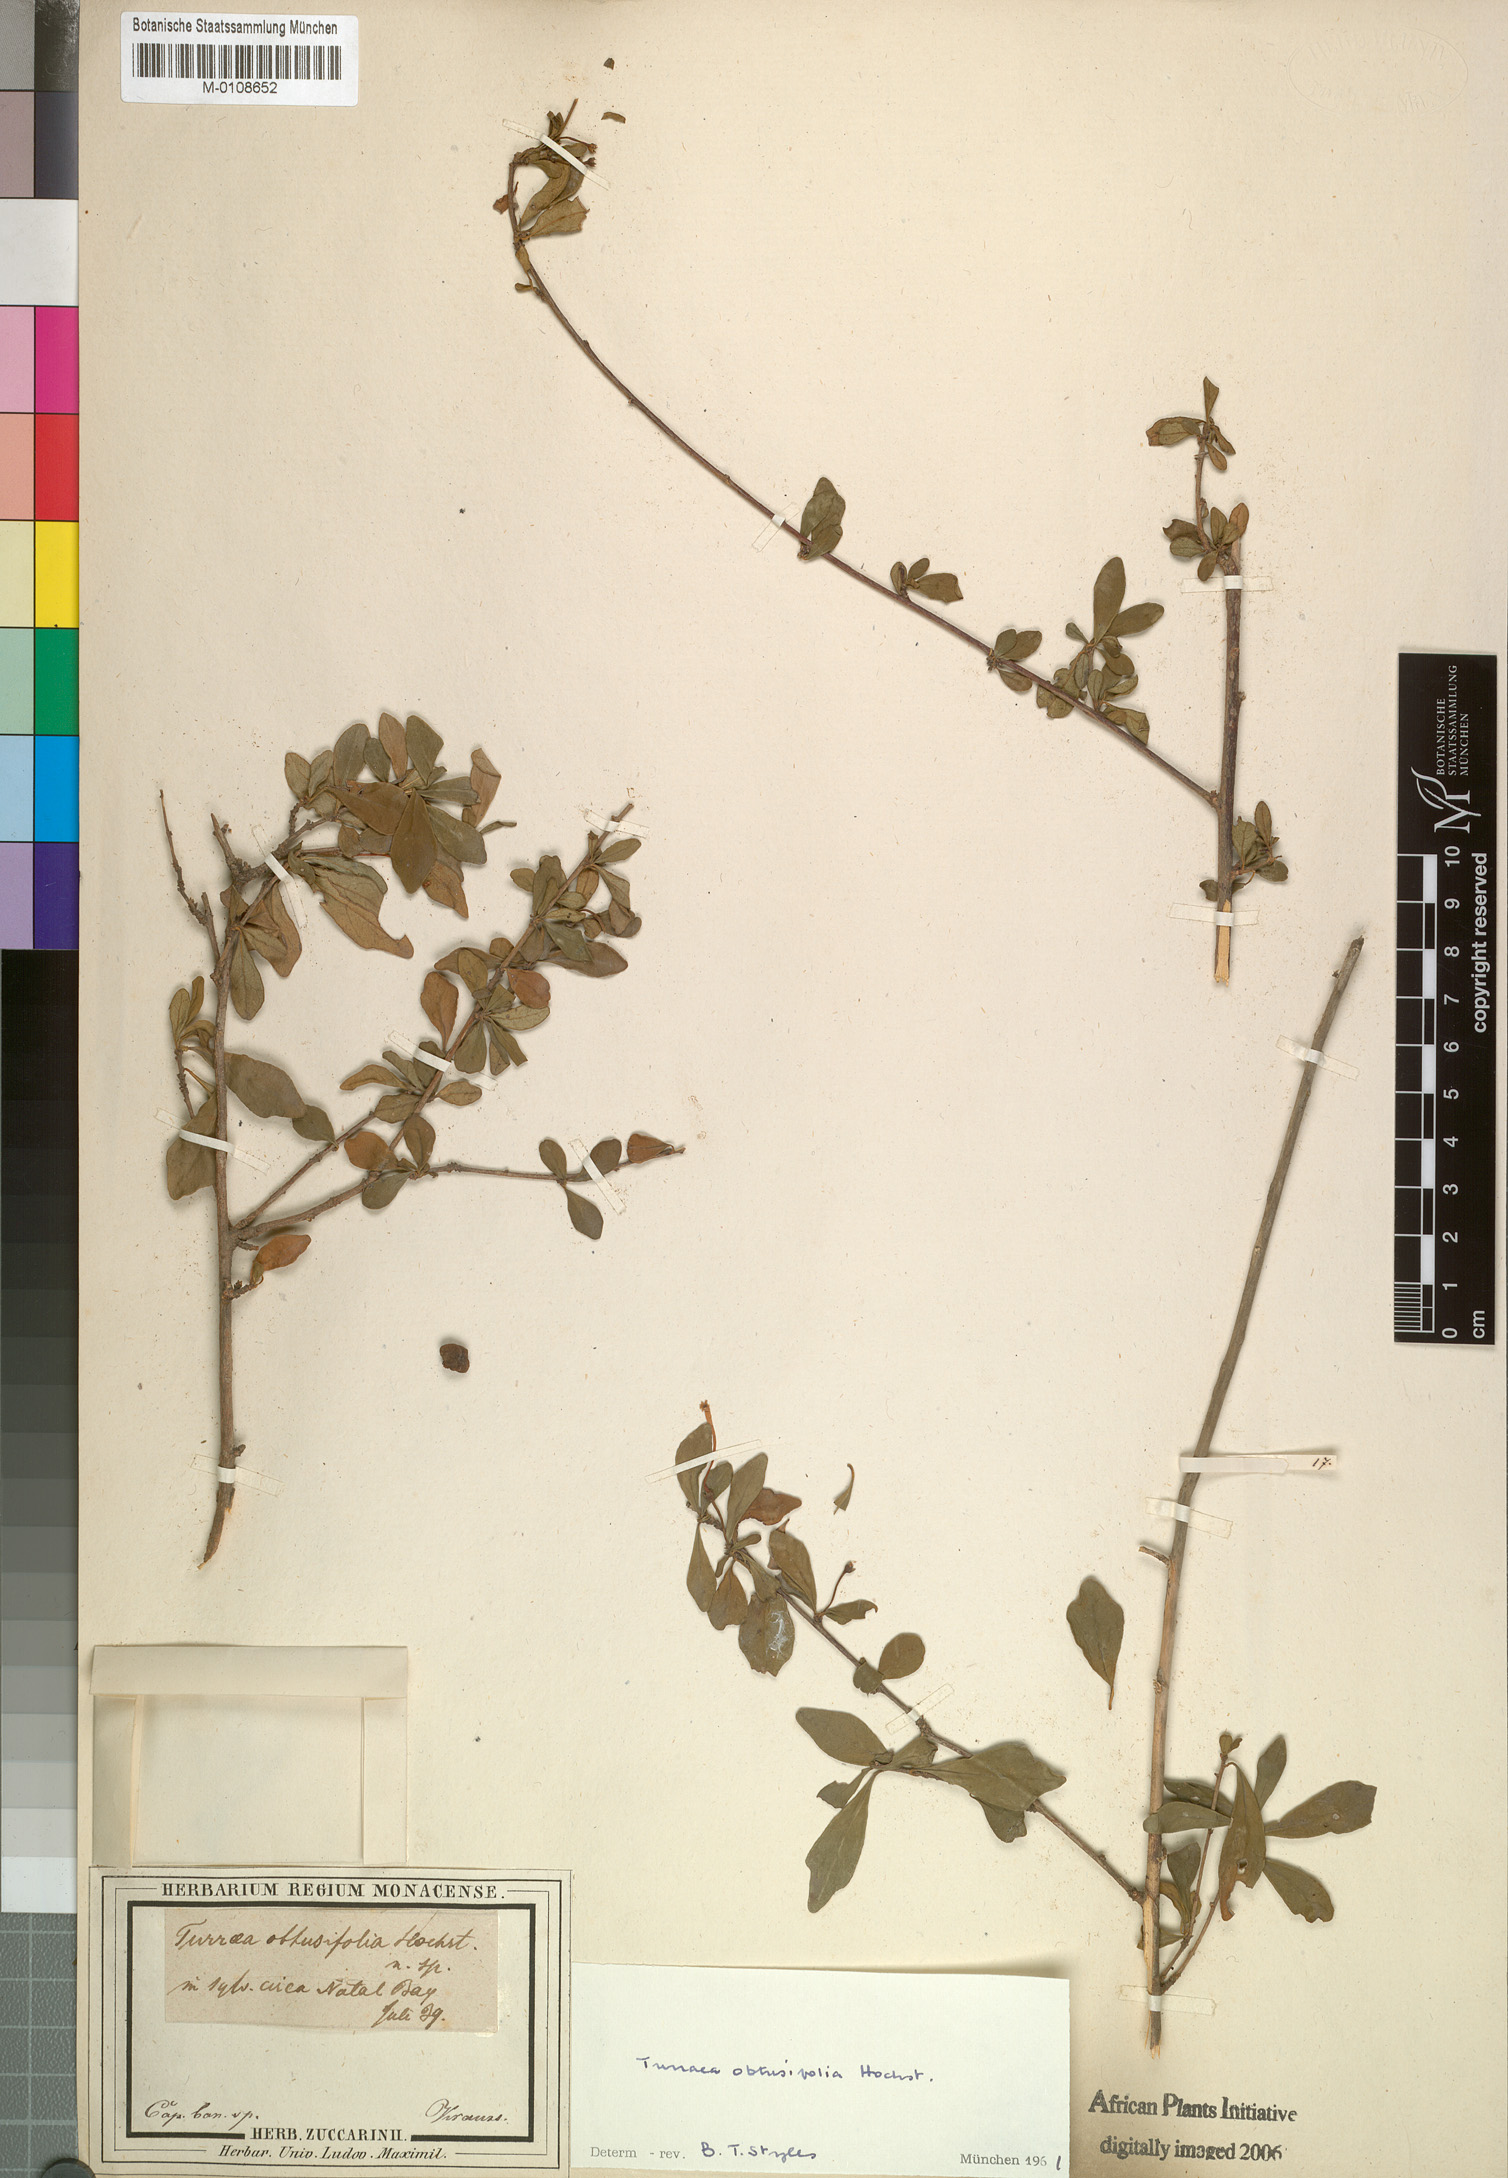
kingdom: Plantae
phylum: Tracheophyta
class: Magnoliopsida
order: Sapindales
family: Meliaceae
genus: Turraea
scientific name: Turraea obtusifolia
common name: Small honeysuckle tree
